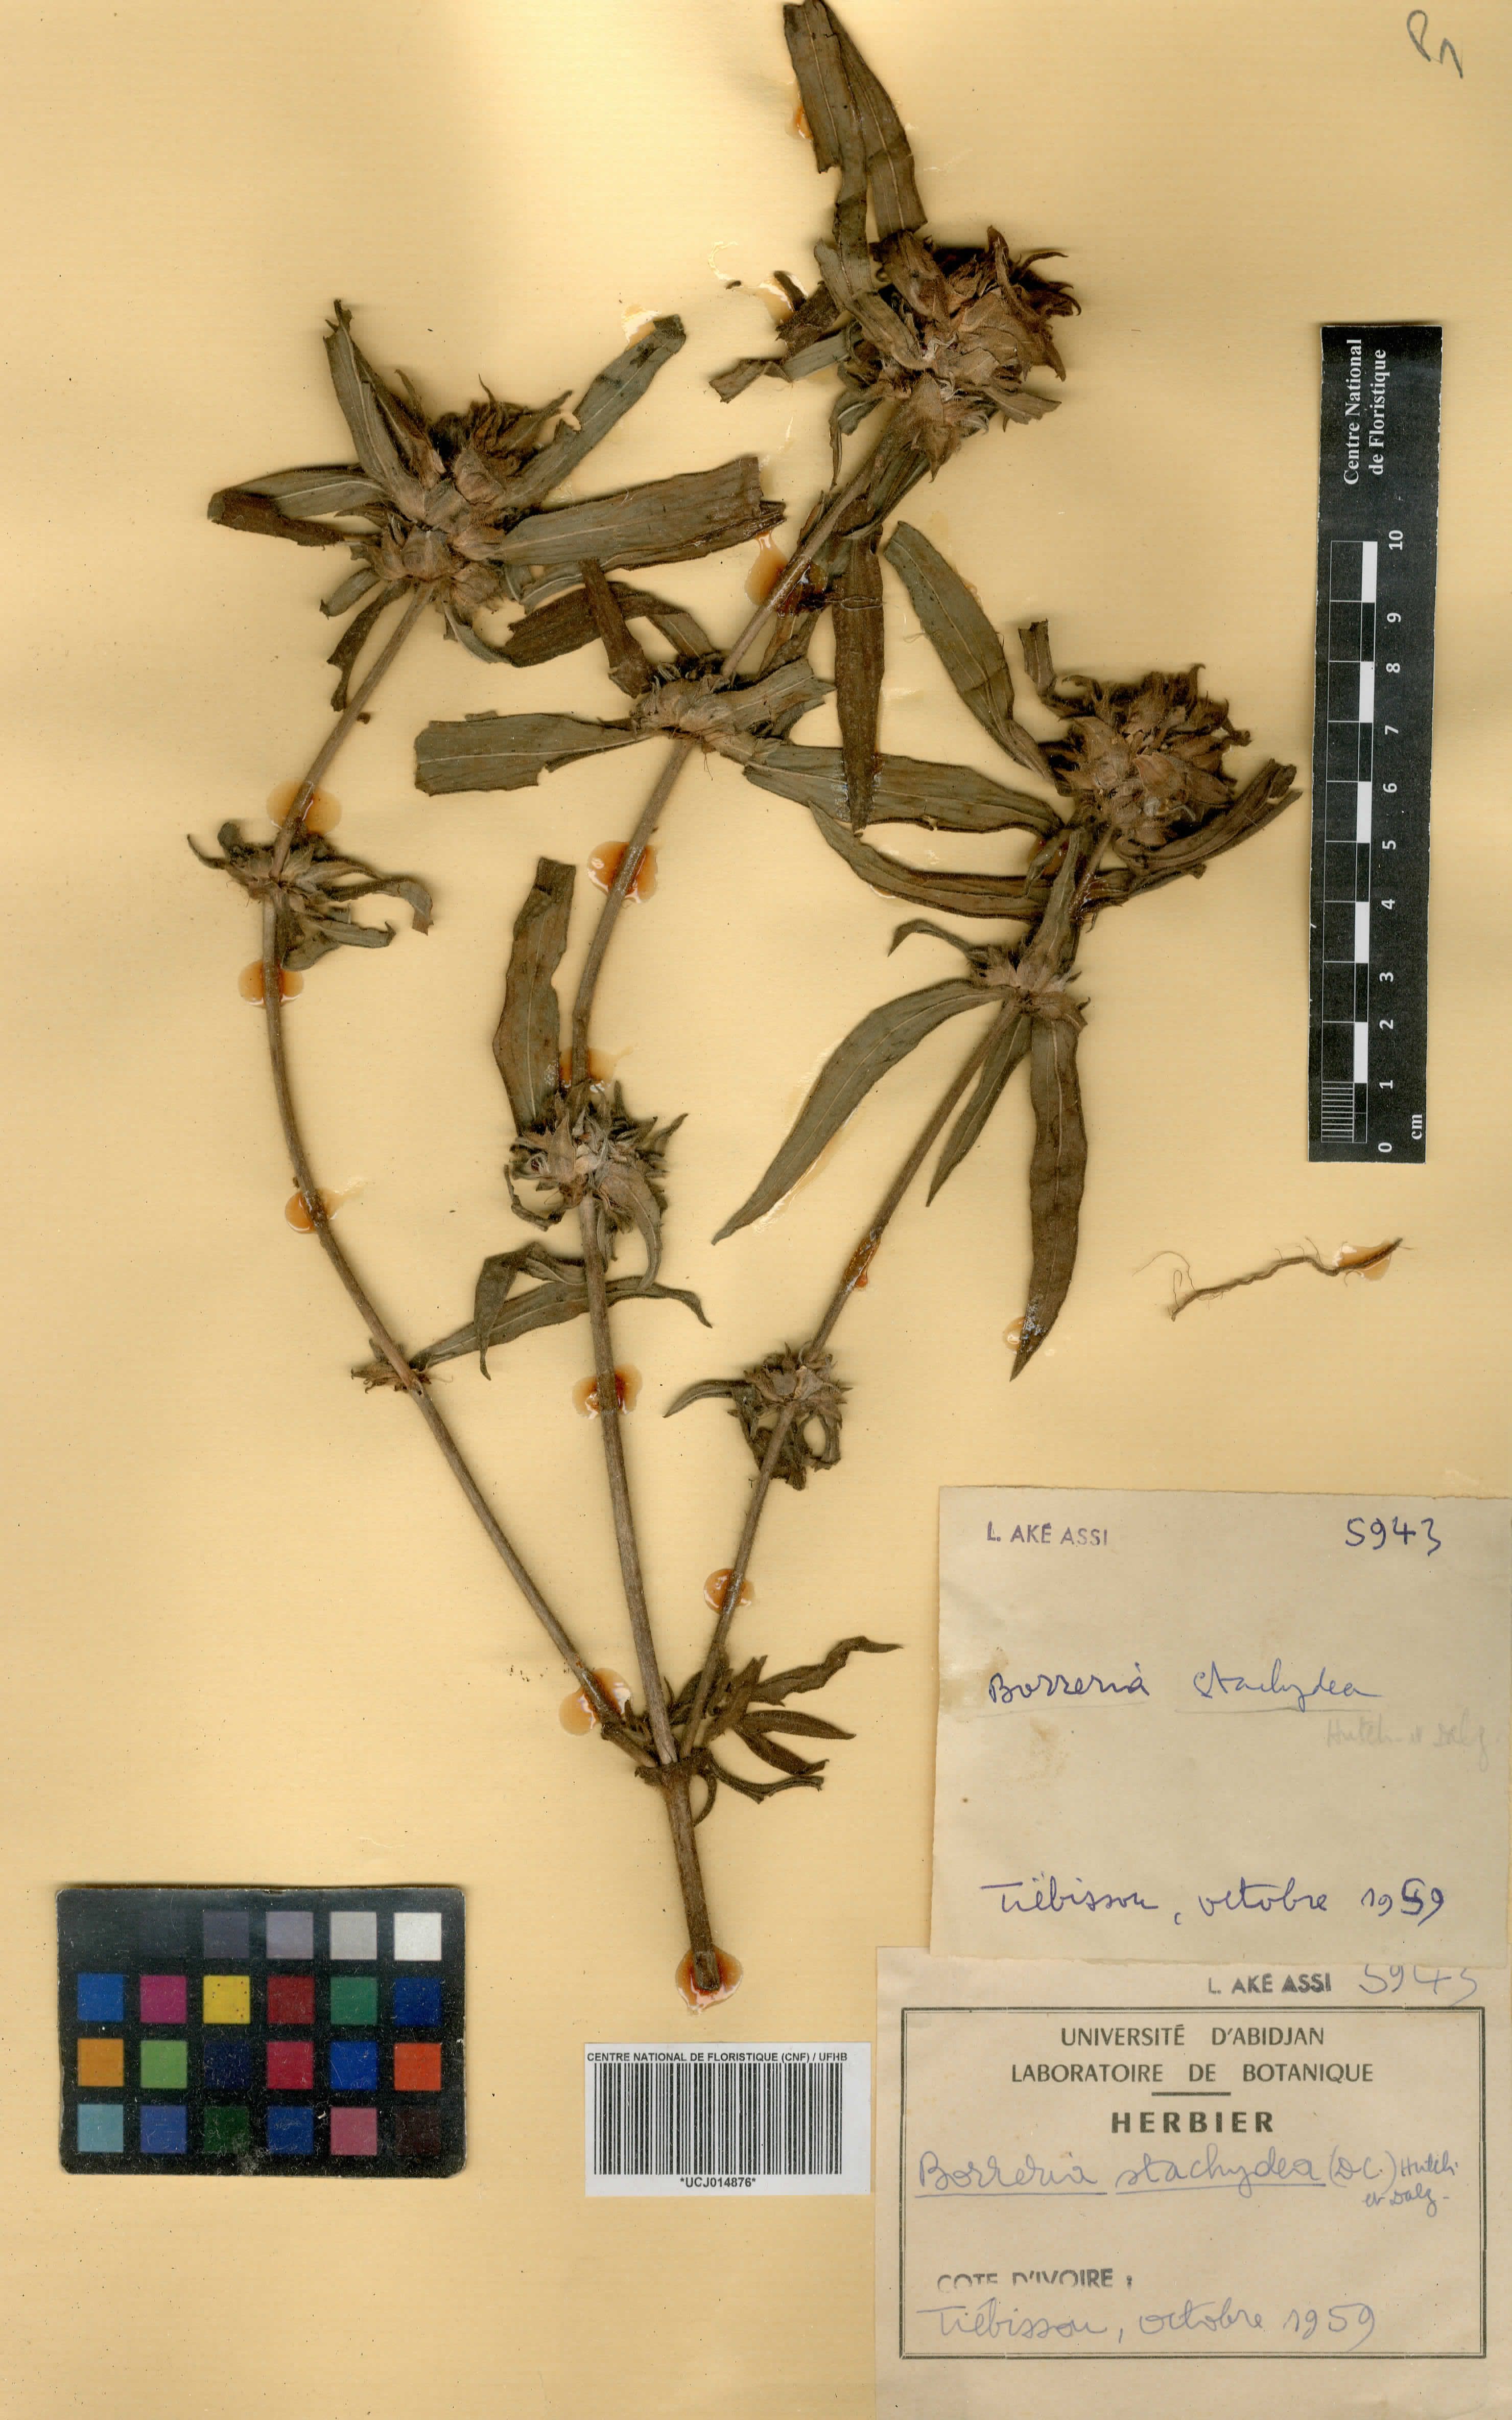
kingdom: Plantae
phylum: Tracheophyta
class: Magnoliopsida
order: Gentianales
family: Rubiaceae
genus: Spermacoce
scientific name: Spermacoce stachydea
